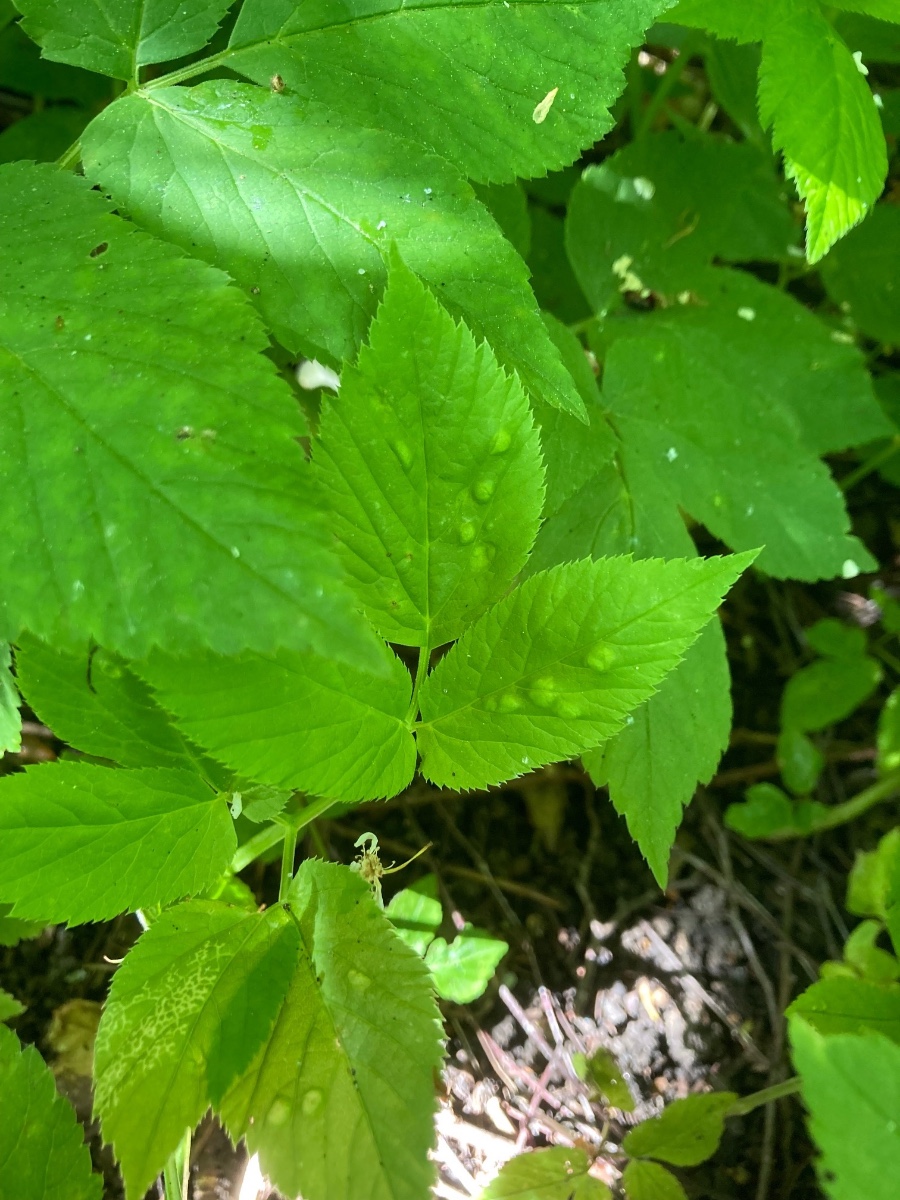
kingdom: Fungi
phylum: Ascomycota
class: Taphrinomycetes
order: Taphrinales
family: Taphrinaceae
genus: Protomyces
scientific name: Protomyces macrosporus
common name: skvalderkål-vablesæk
